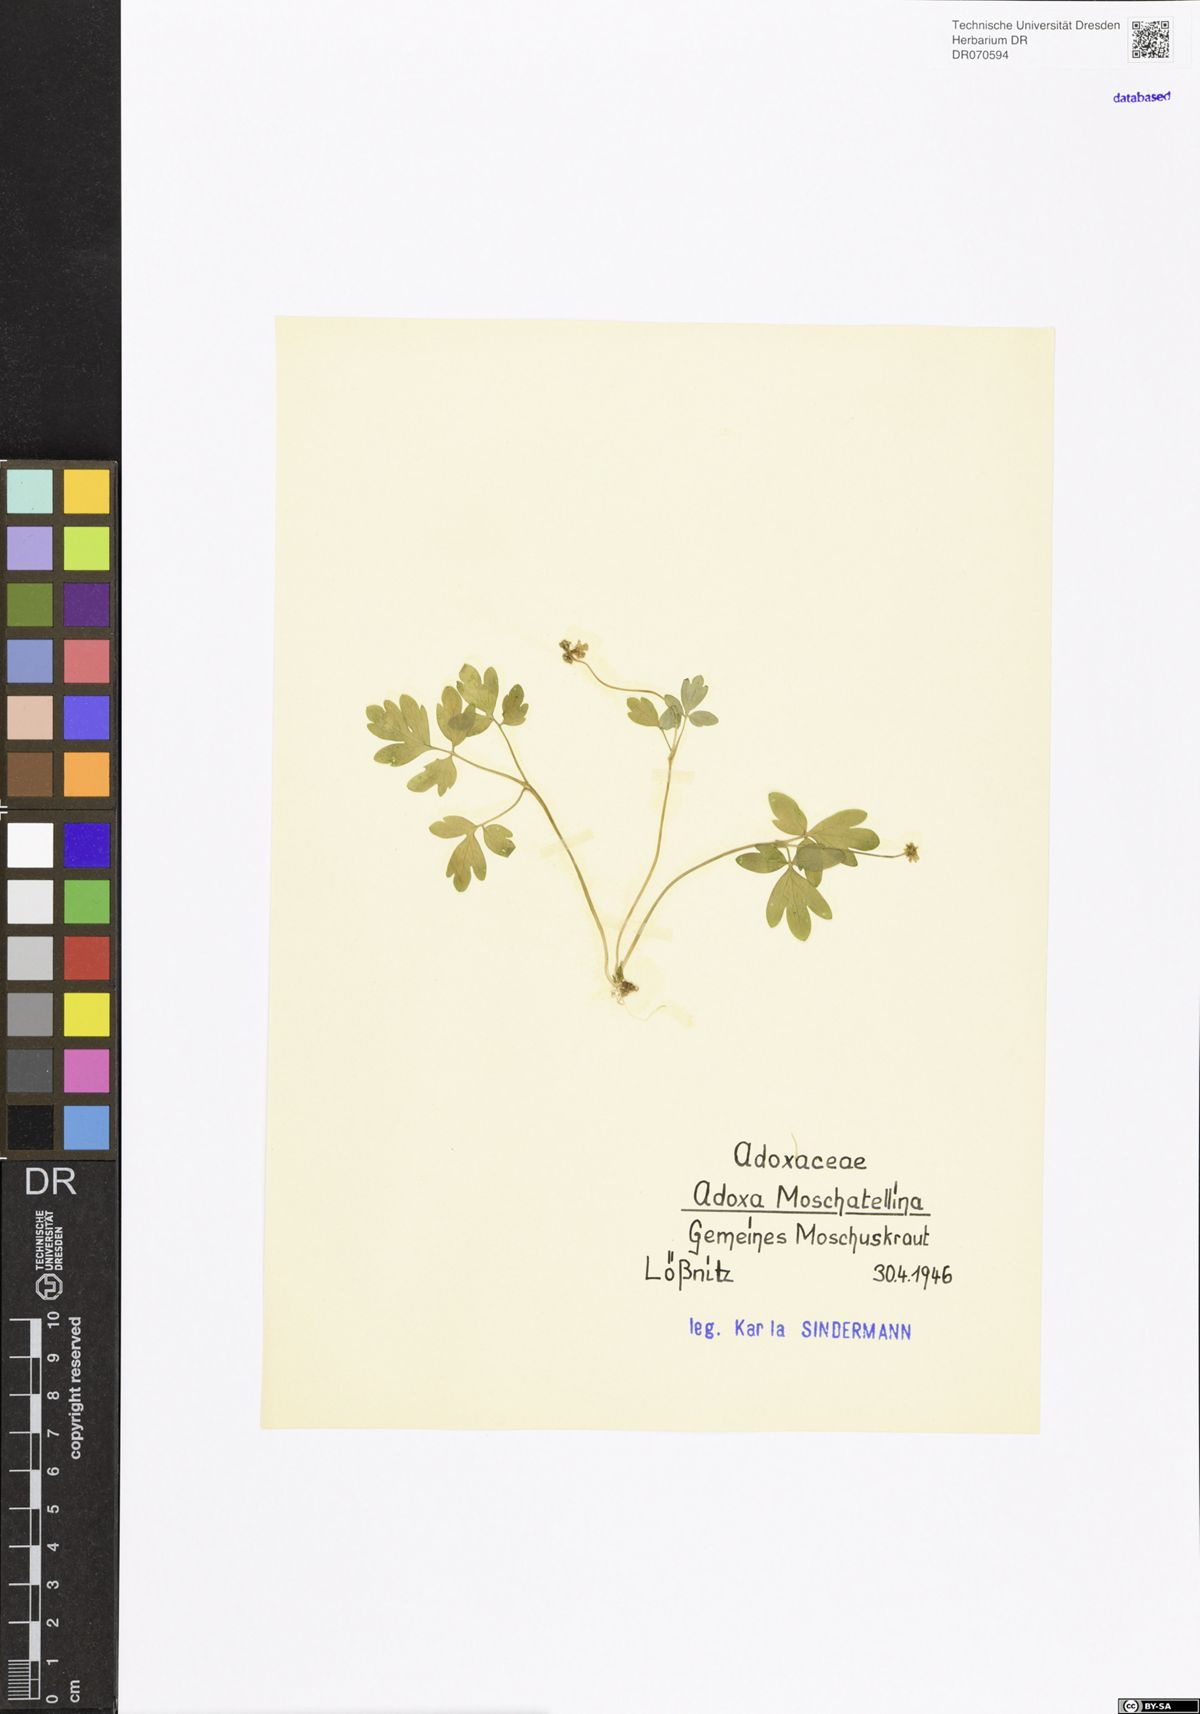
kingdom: Plantae
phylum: Tracheophyta
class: Magnoliopsida
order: Dipsacales
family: Viburnaceae
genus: Adoxa
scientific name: Adoxa moschatellina
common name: Moschatel
